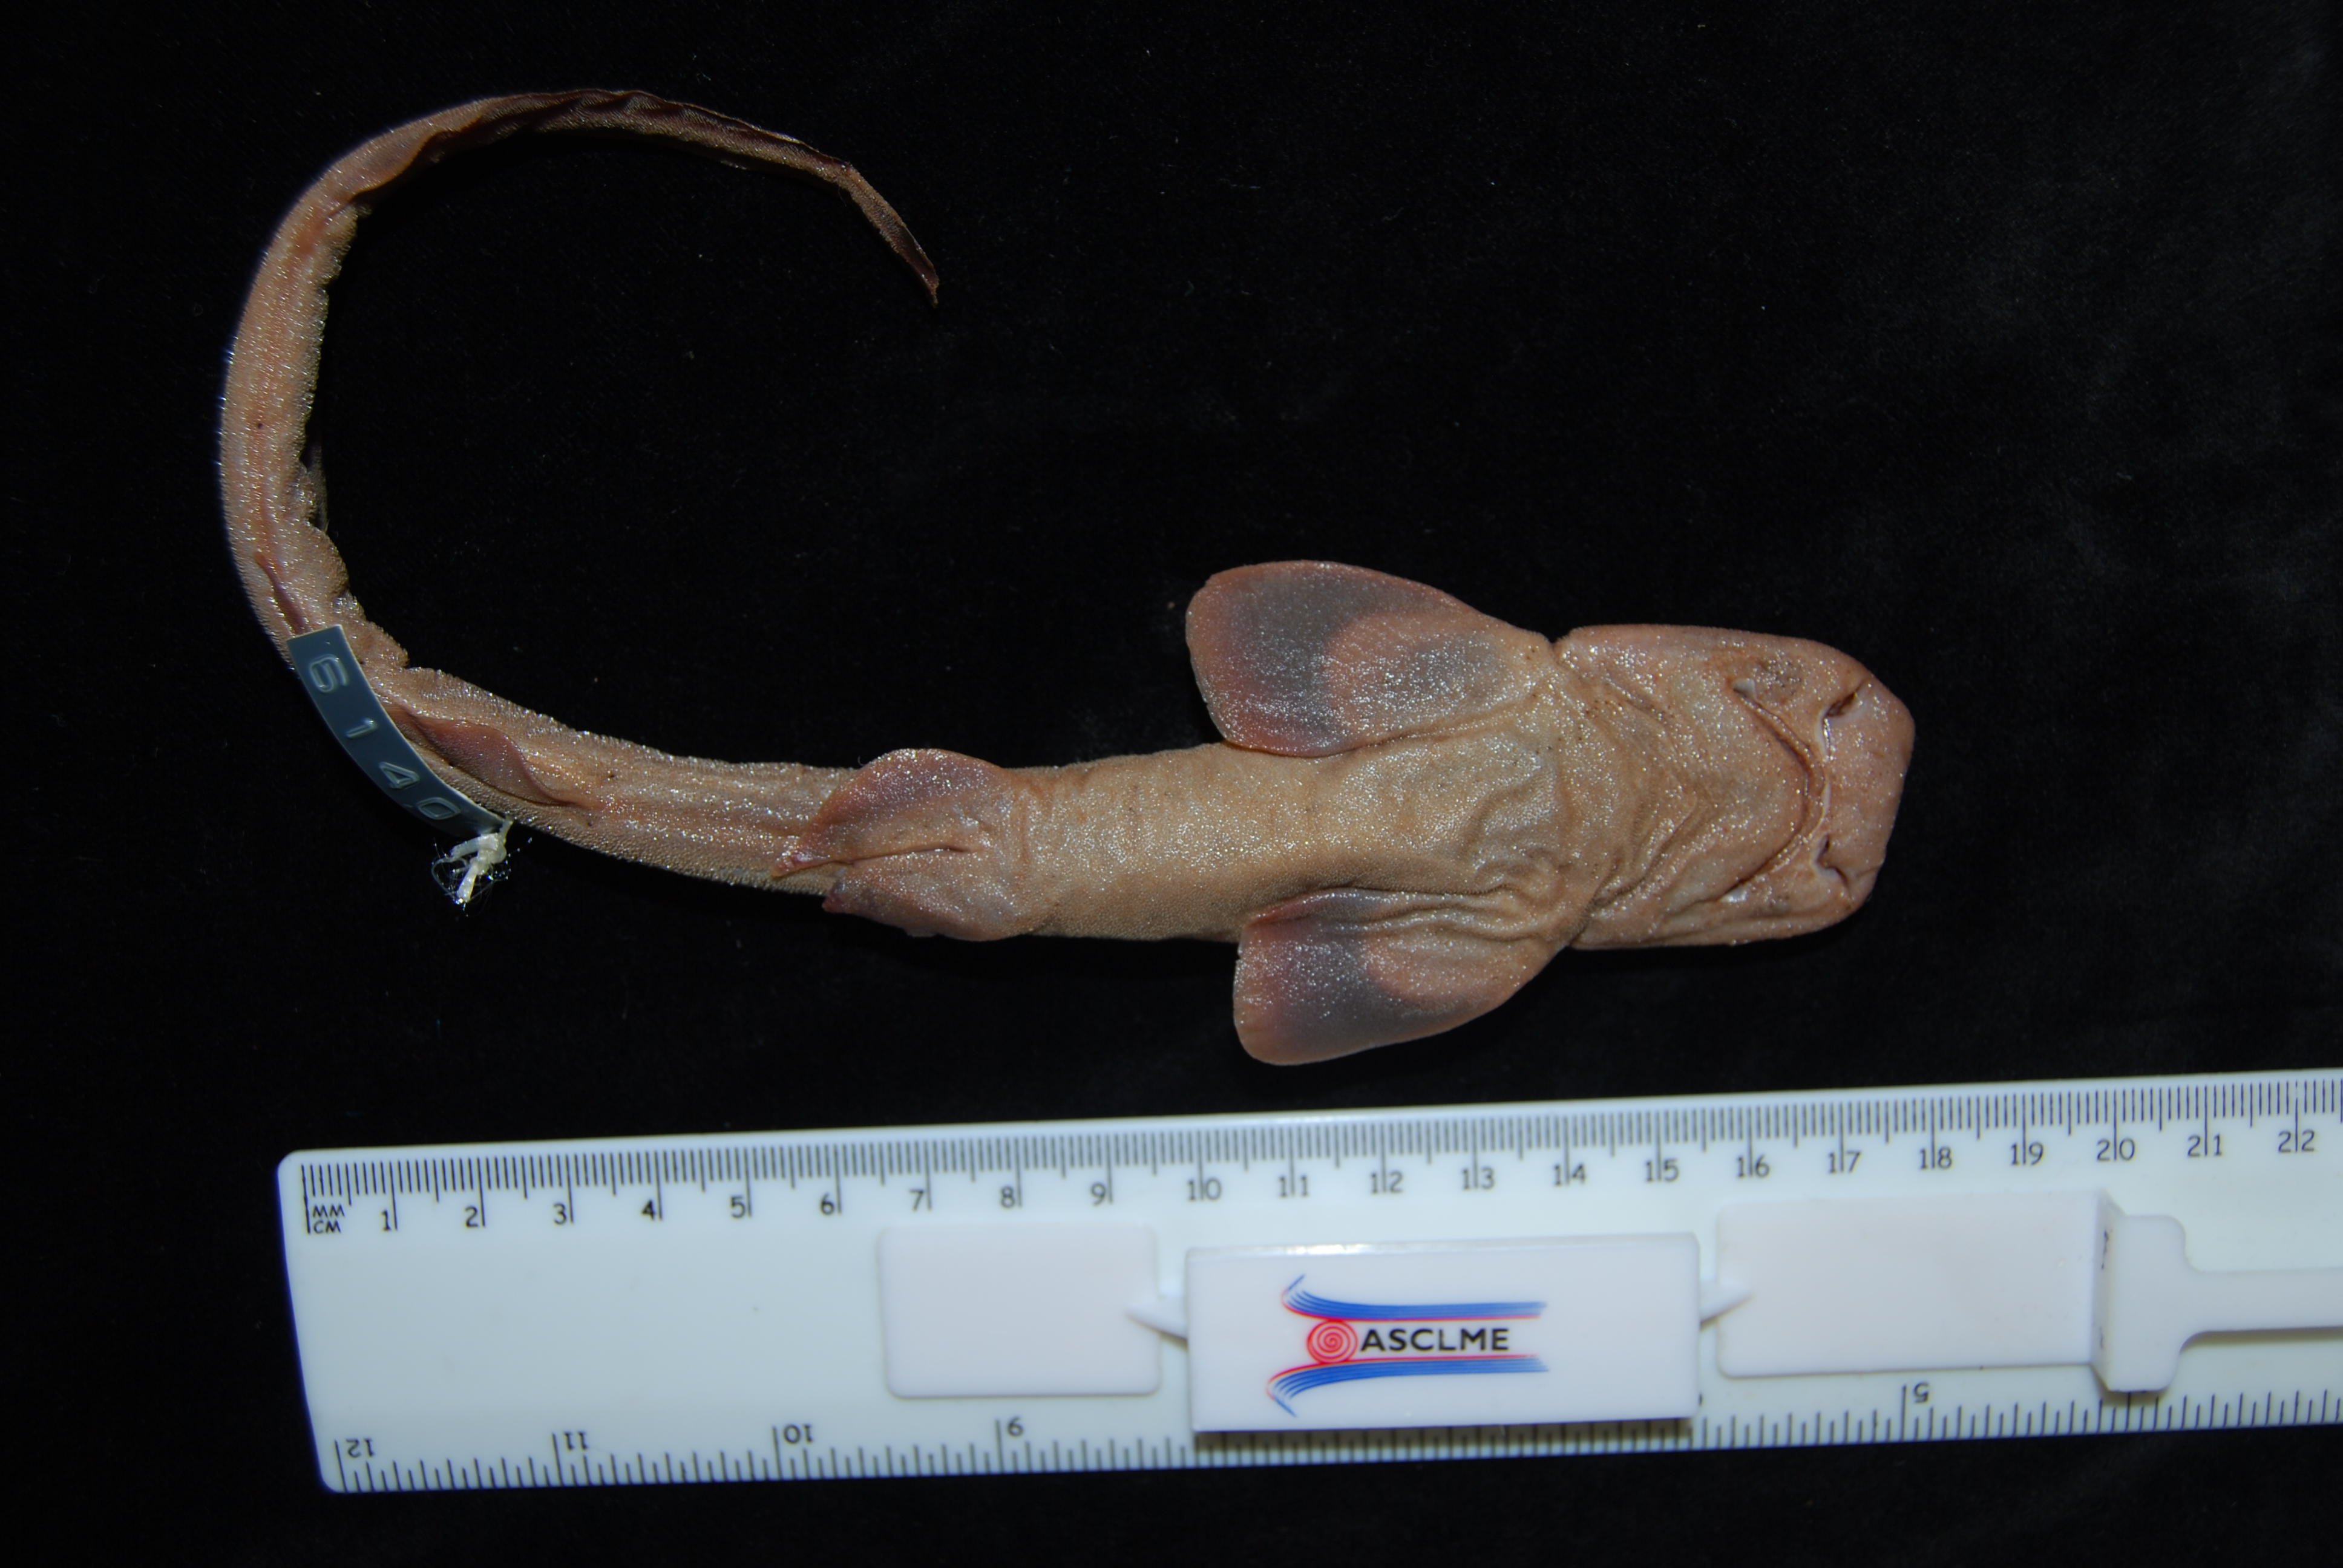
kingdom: Animalia
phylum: Chordata
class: Elasmobranchii
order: Carcharhiniformes
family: Scyliorhinidae
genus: Holohalaelurus
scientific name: Holohalaelurus favus
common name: African spotted catshark
